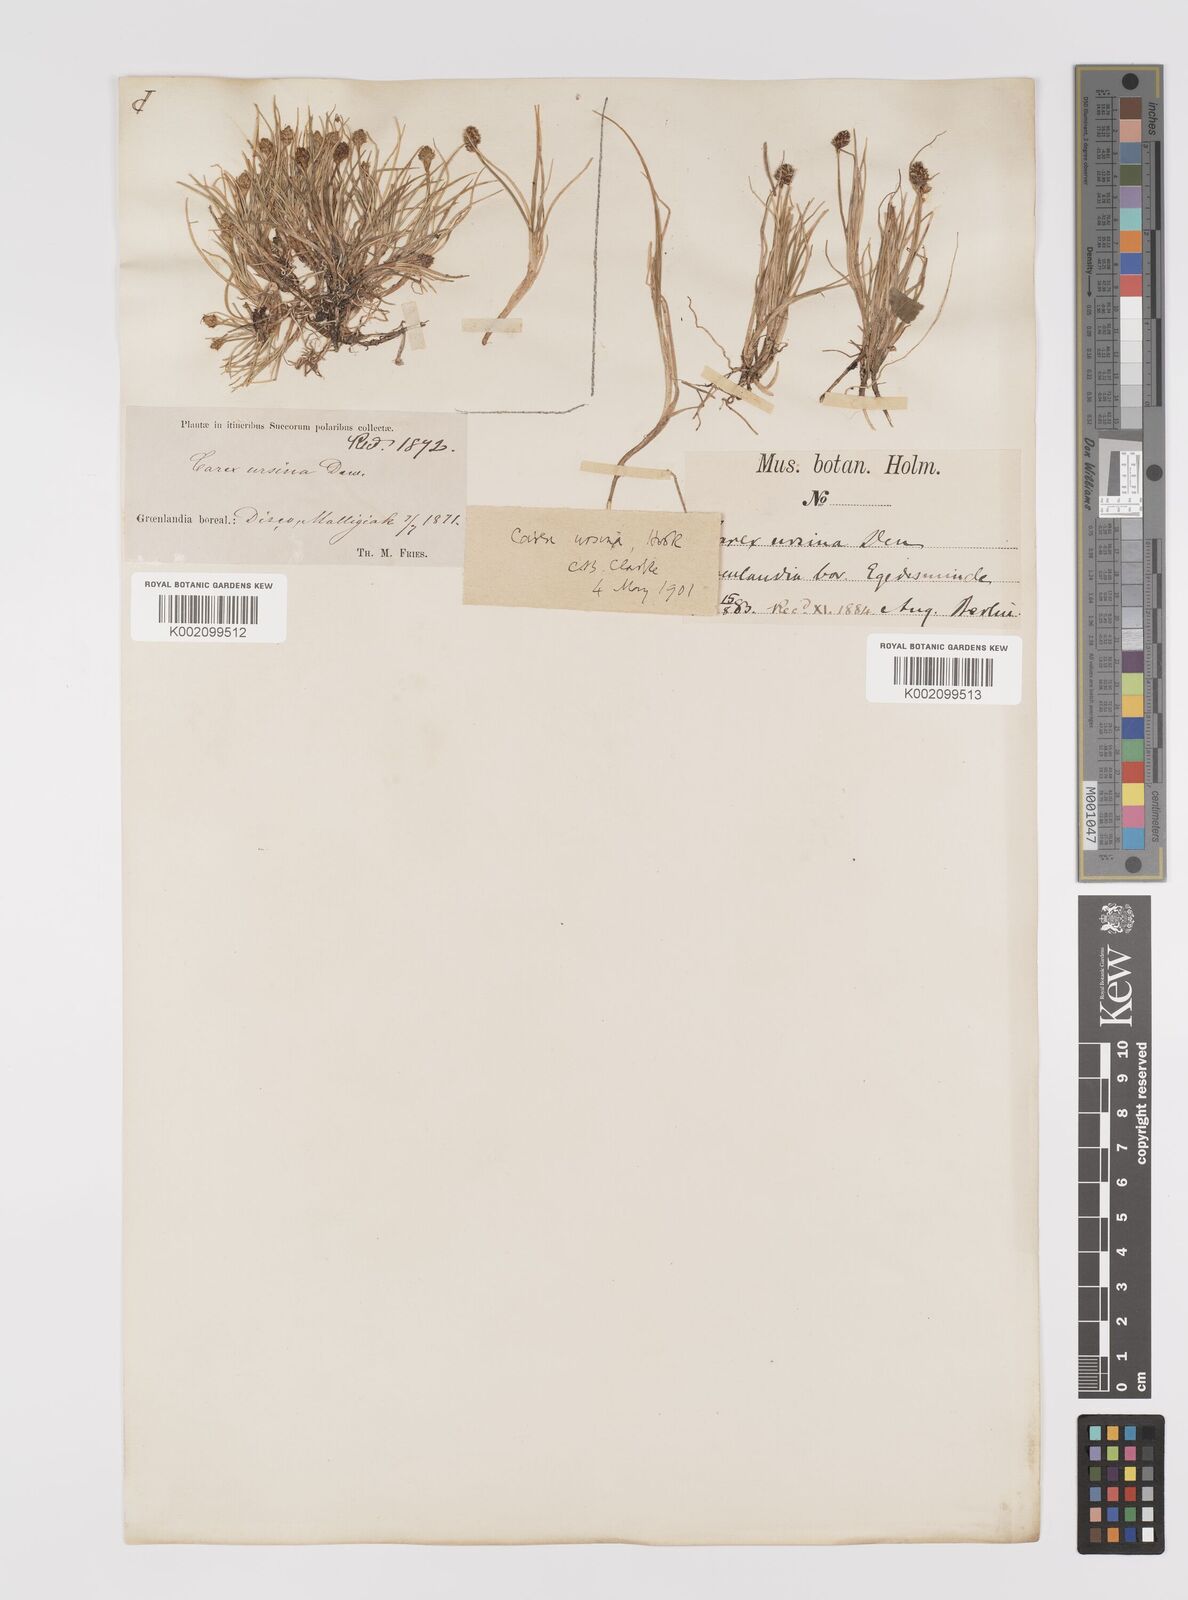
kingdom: Plantae
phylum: Tracheophyta
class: Liliopsida
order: Poales
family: Cyperaceae
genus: Carex
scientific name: Carex ursina
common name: Bear sedge
